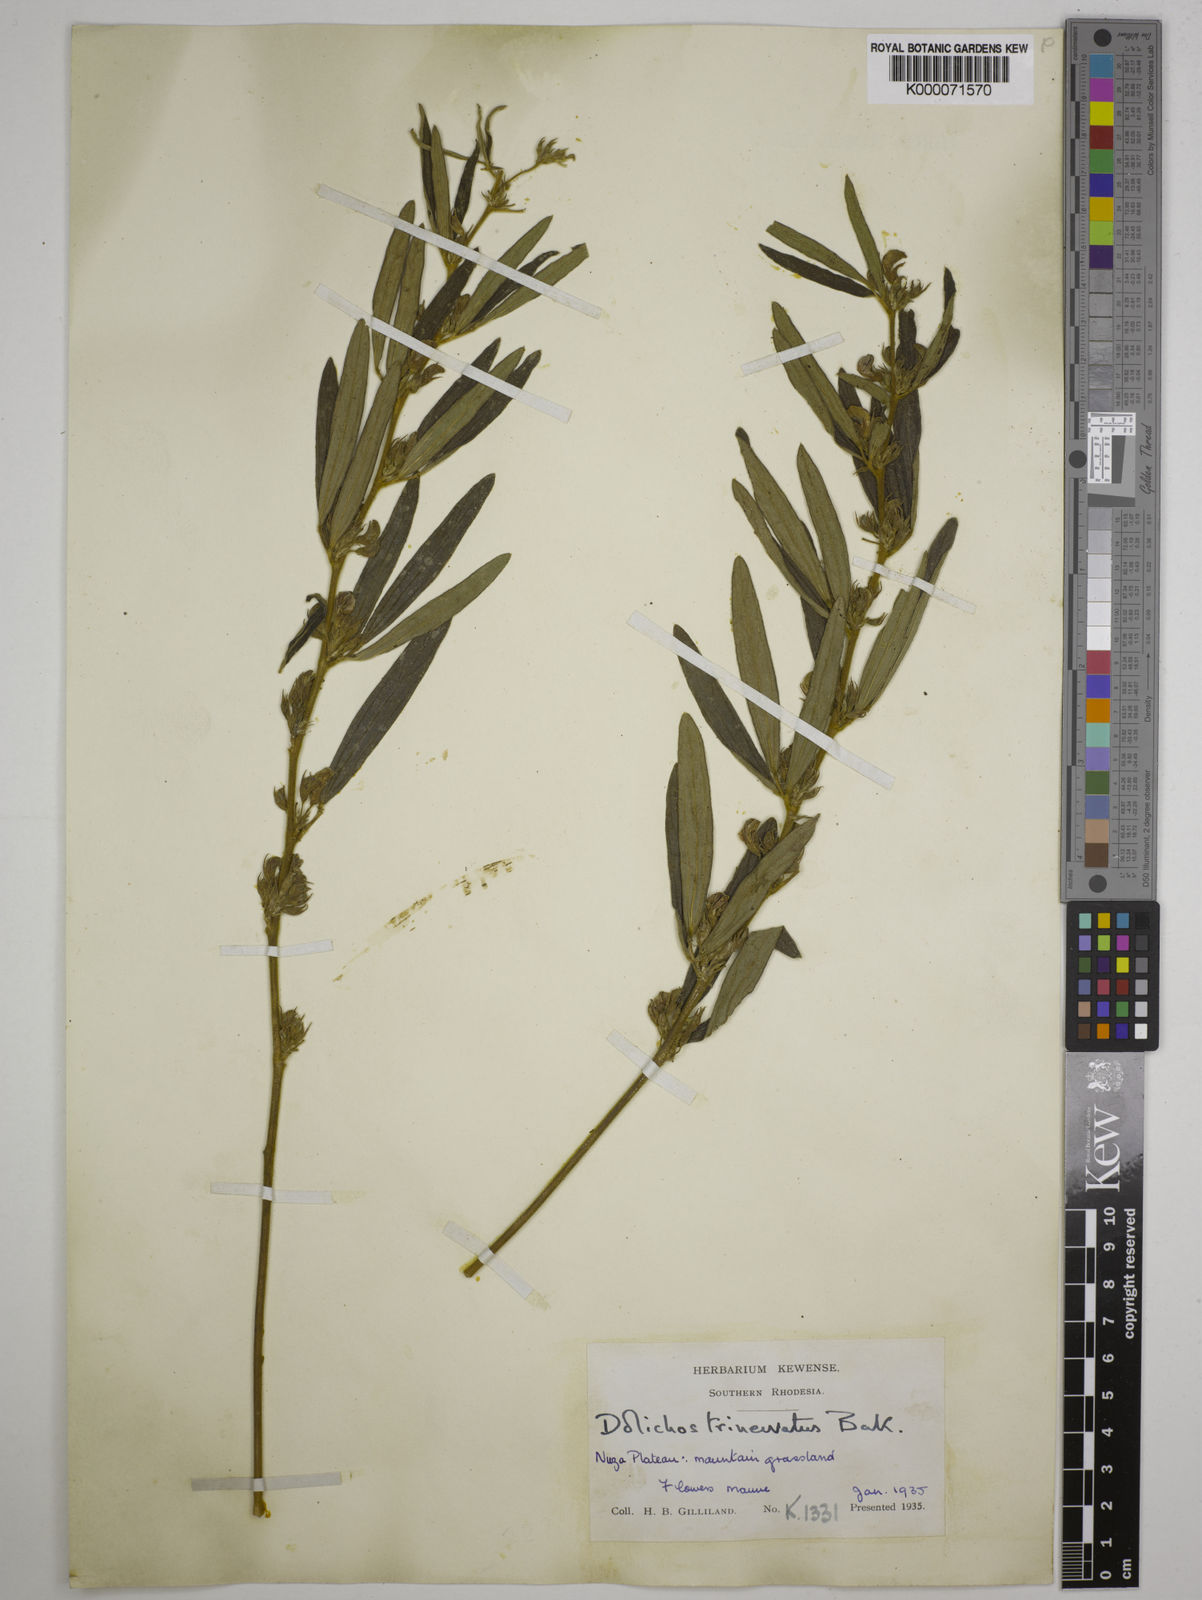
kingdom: Plantae
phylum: Tracheophyta
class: Magnoliopsida
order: Fabales
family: Fabaceae
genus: Dolichos
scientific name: Dolichos trinervatus
